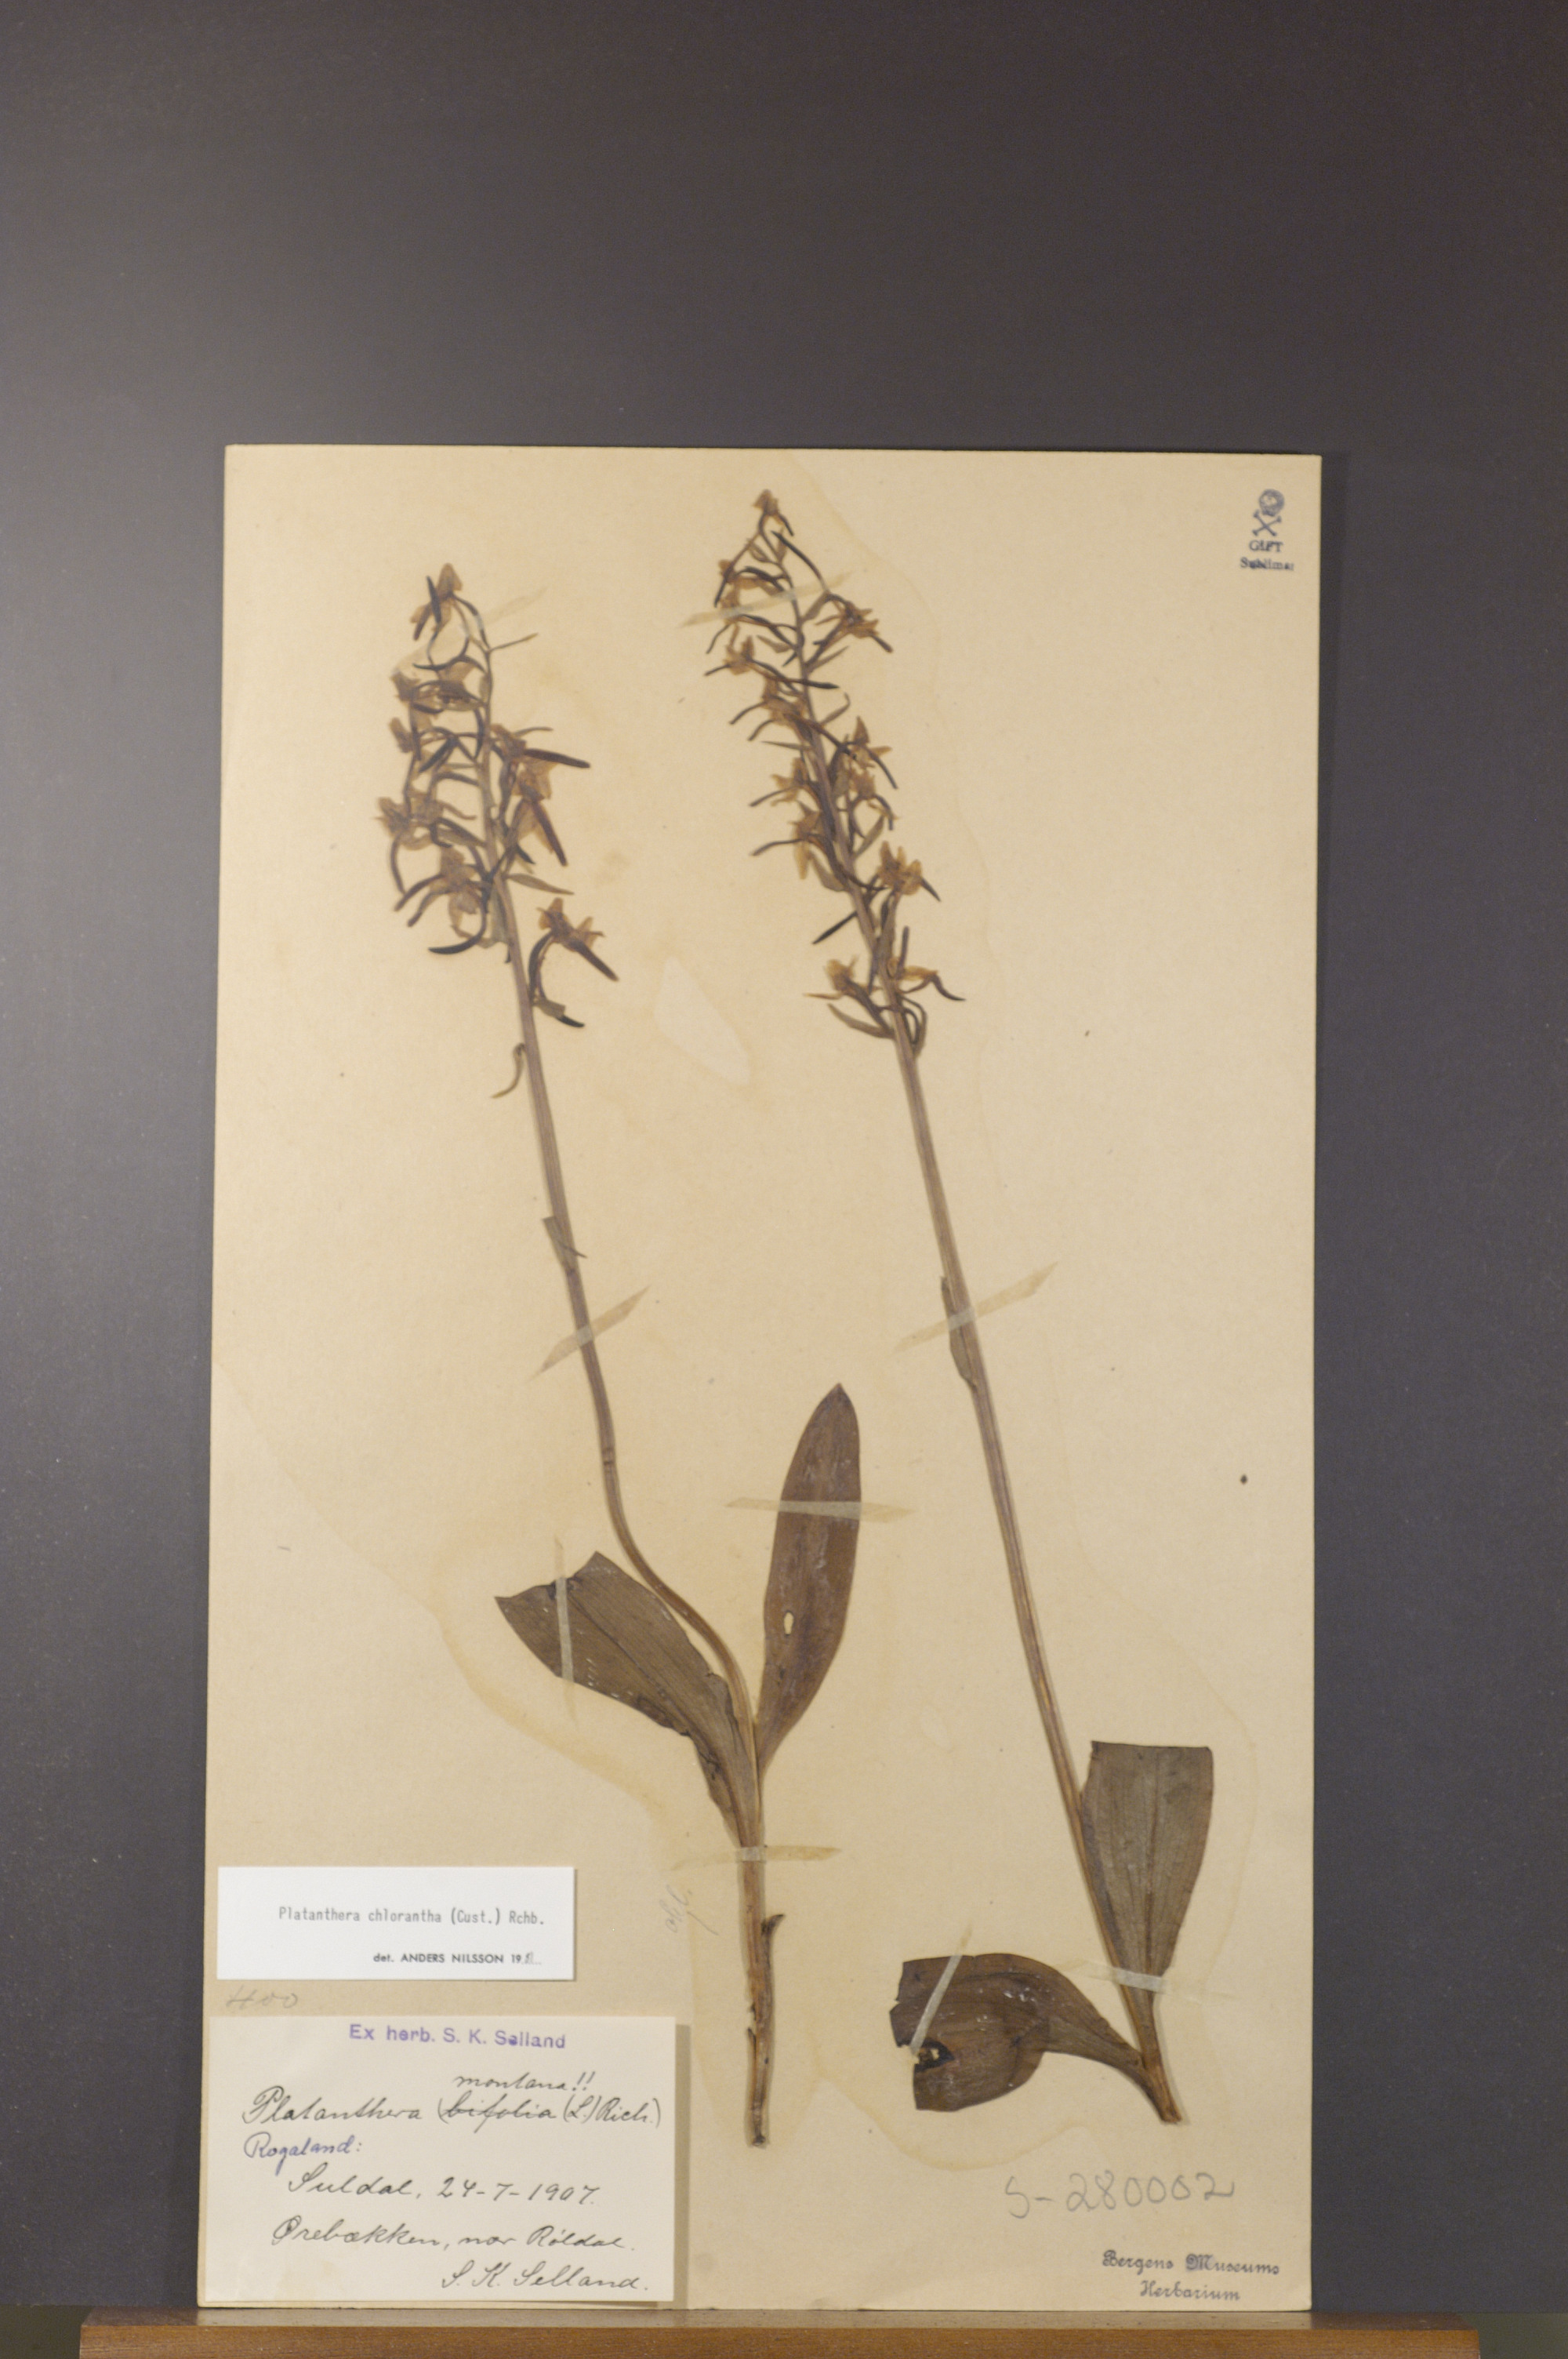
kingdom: Plantae
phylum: Tracheophyta
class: Liliopsida
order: Asparagales
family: Orchidaceae
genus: Platanthera
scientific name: Platanthera chlorantha
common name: Greater butterfly-orchid
